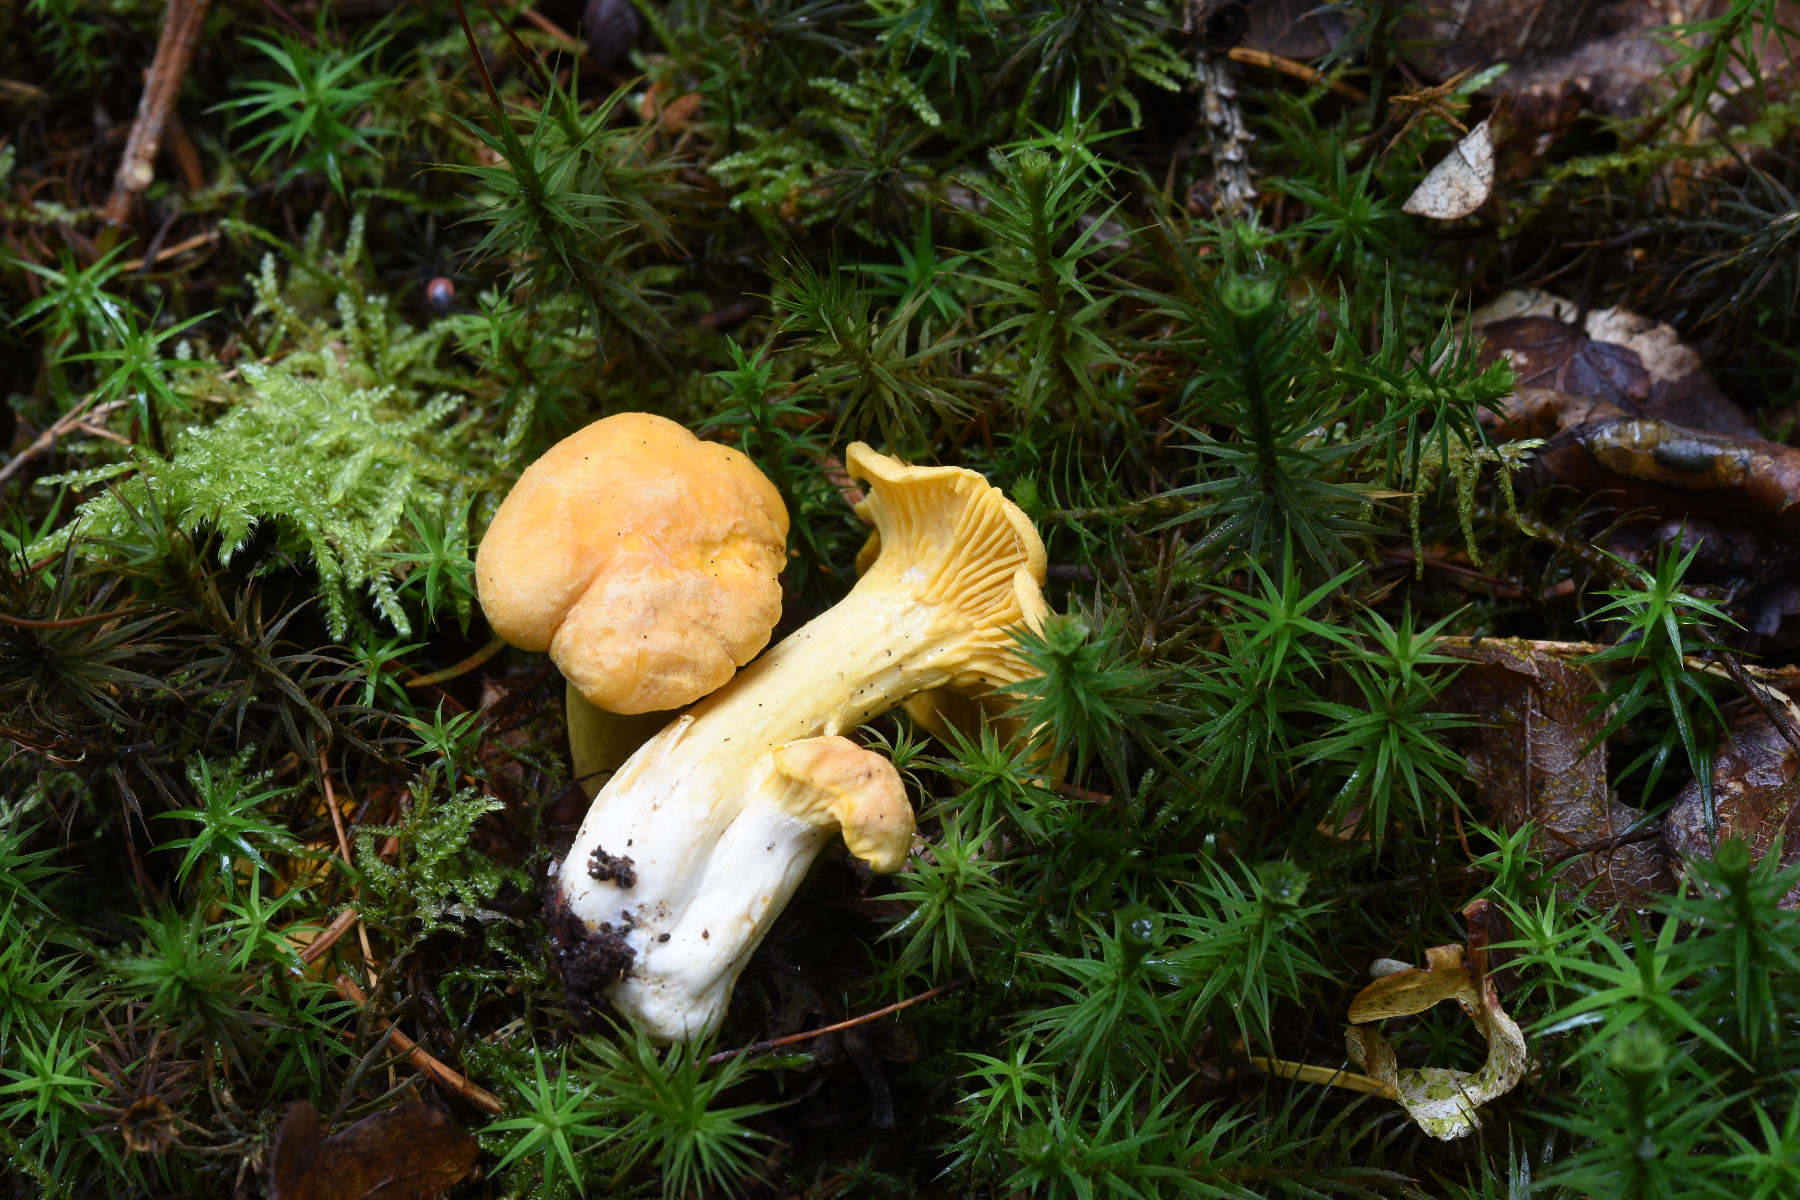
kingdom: Fungi
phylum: Basidiomycota
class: Agaricomycetes
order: Cantharellales
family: Hydnaceae
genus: Cantharellus
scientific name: Cantharellus cibarius
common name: almindelig kantarel
